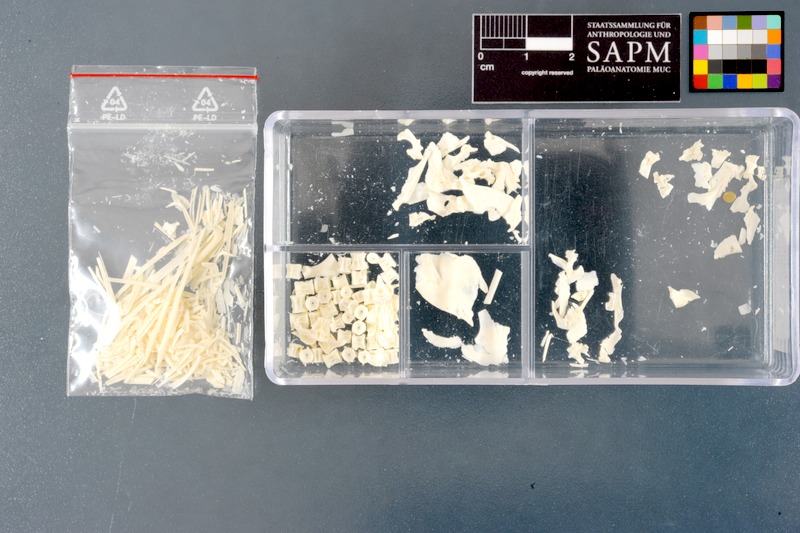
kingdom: Animalia
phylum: Chordata
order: Cypriniformes
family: Cyprinidae
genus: Pelecus
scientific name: Pelecus cultratus
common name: Ziege
